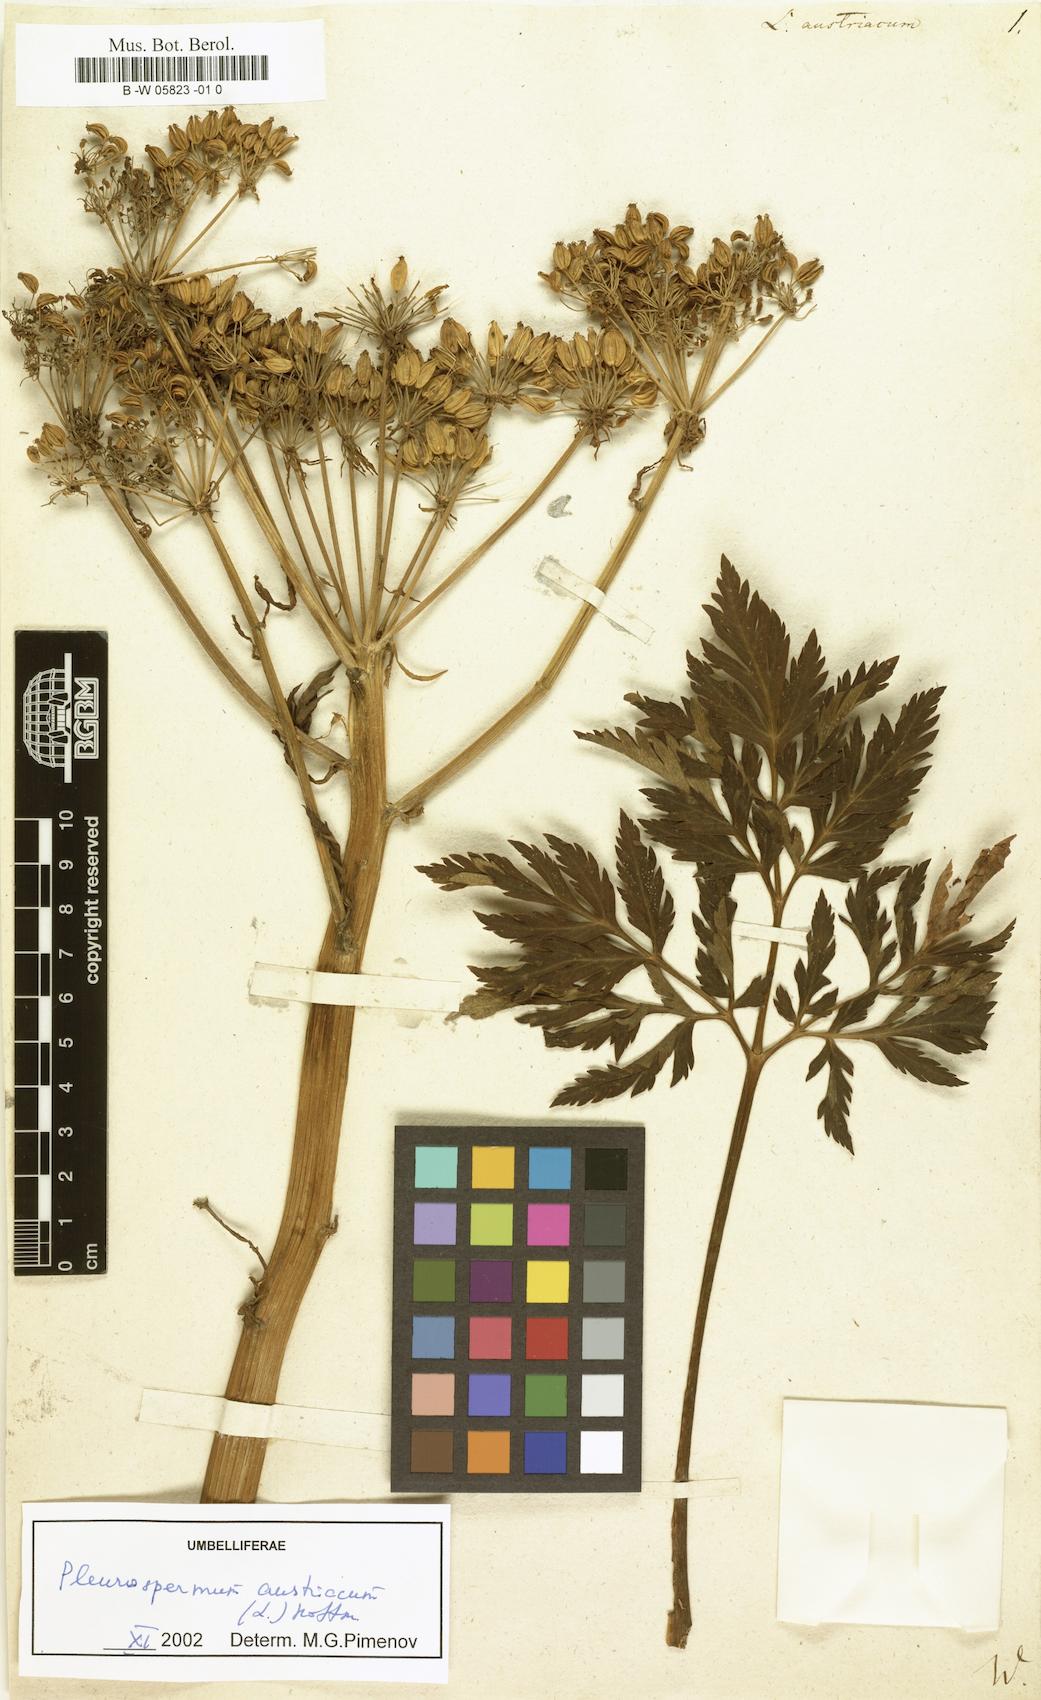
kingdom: Plantae
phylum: Tracheophyta
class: Magnoliopsida
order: Apiales
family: Apiaceae
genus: Pleurospermum
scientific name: Pleurospermum austriacum
